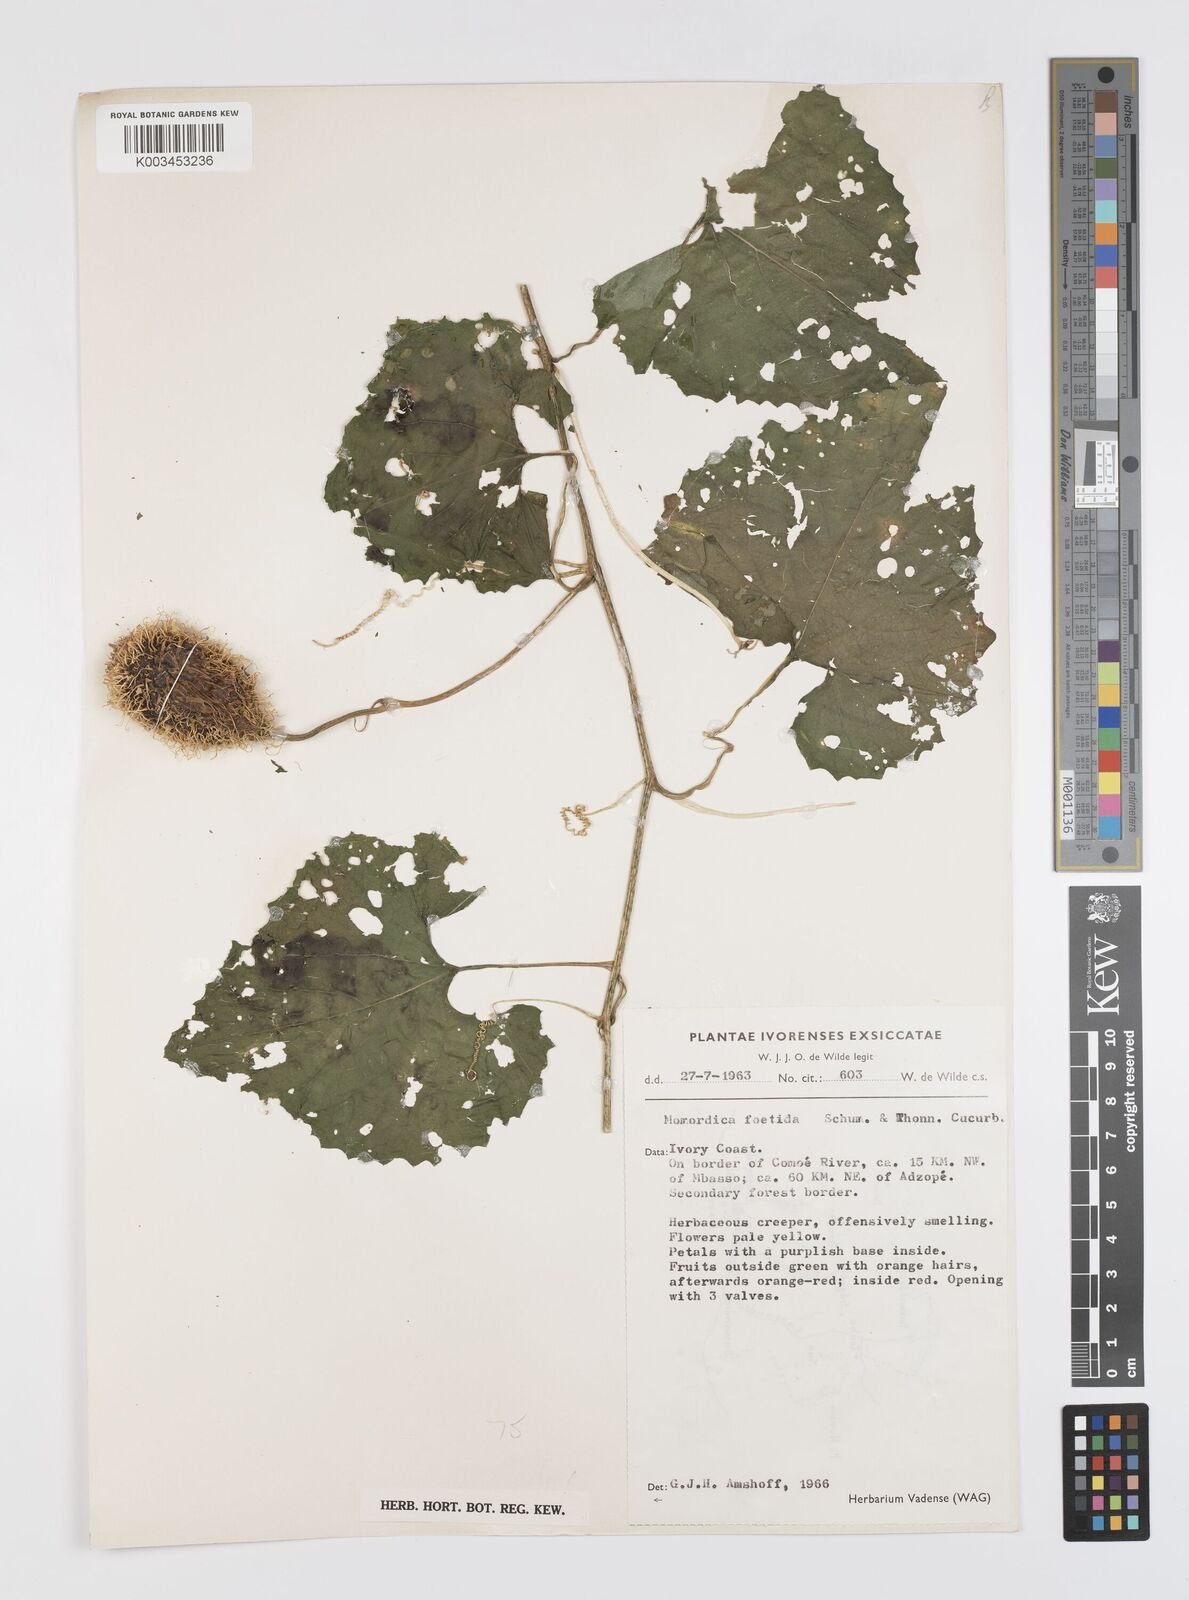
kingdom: Plantae
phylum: Tracheophyta
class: Magnoliopsida
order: Cucurbitales
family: Cucurbitaceae
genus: Momordica
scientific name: Momordica foetida
